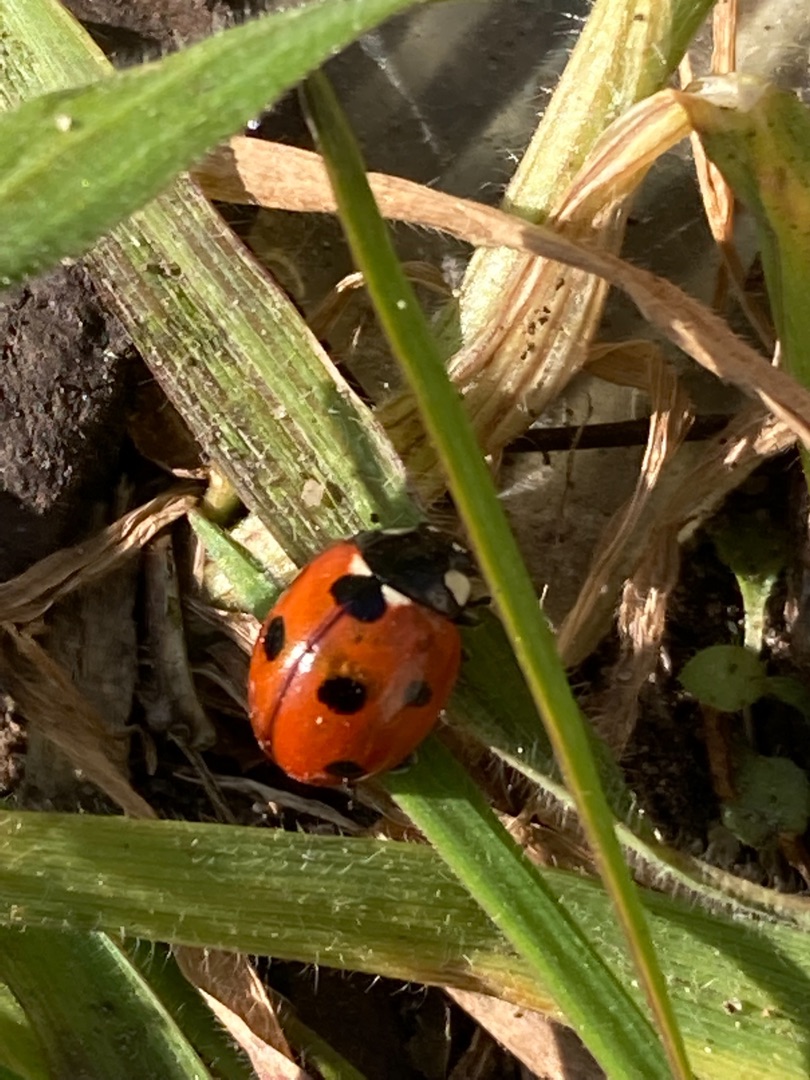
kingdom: Animalia
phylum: Arthropoda
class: Insecta
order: Coleoptera
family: Coccinellidae
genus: Coccinella
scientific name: Coccinella septempunctata
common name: Syvplettet mariehøne
